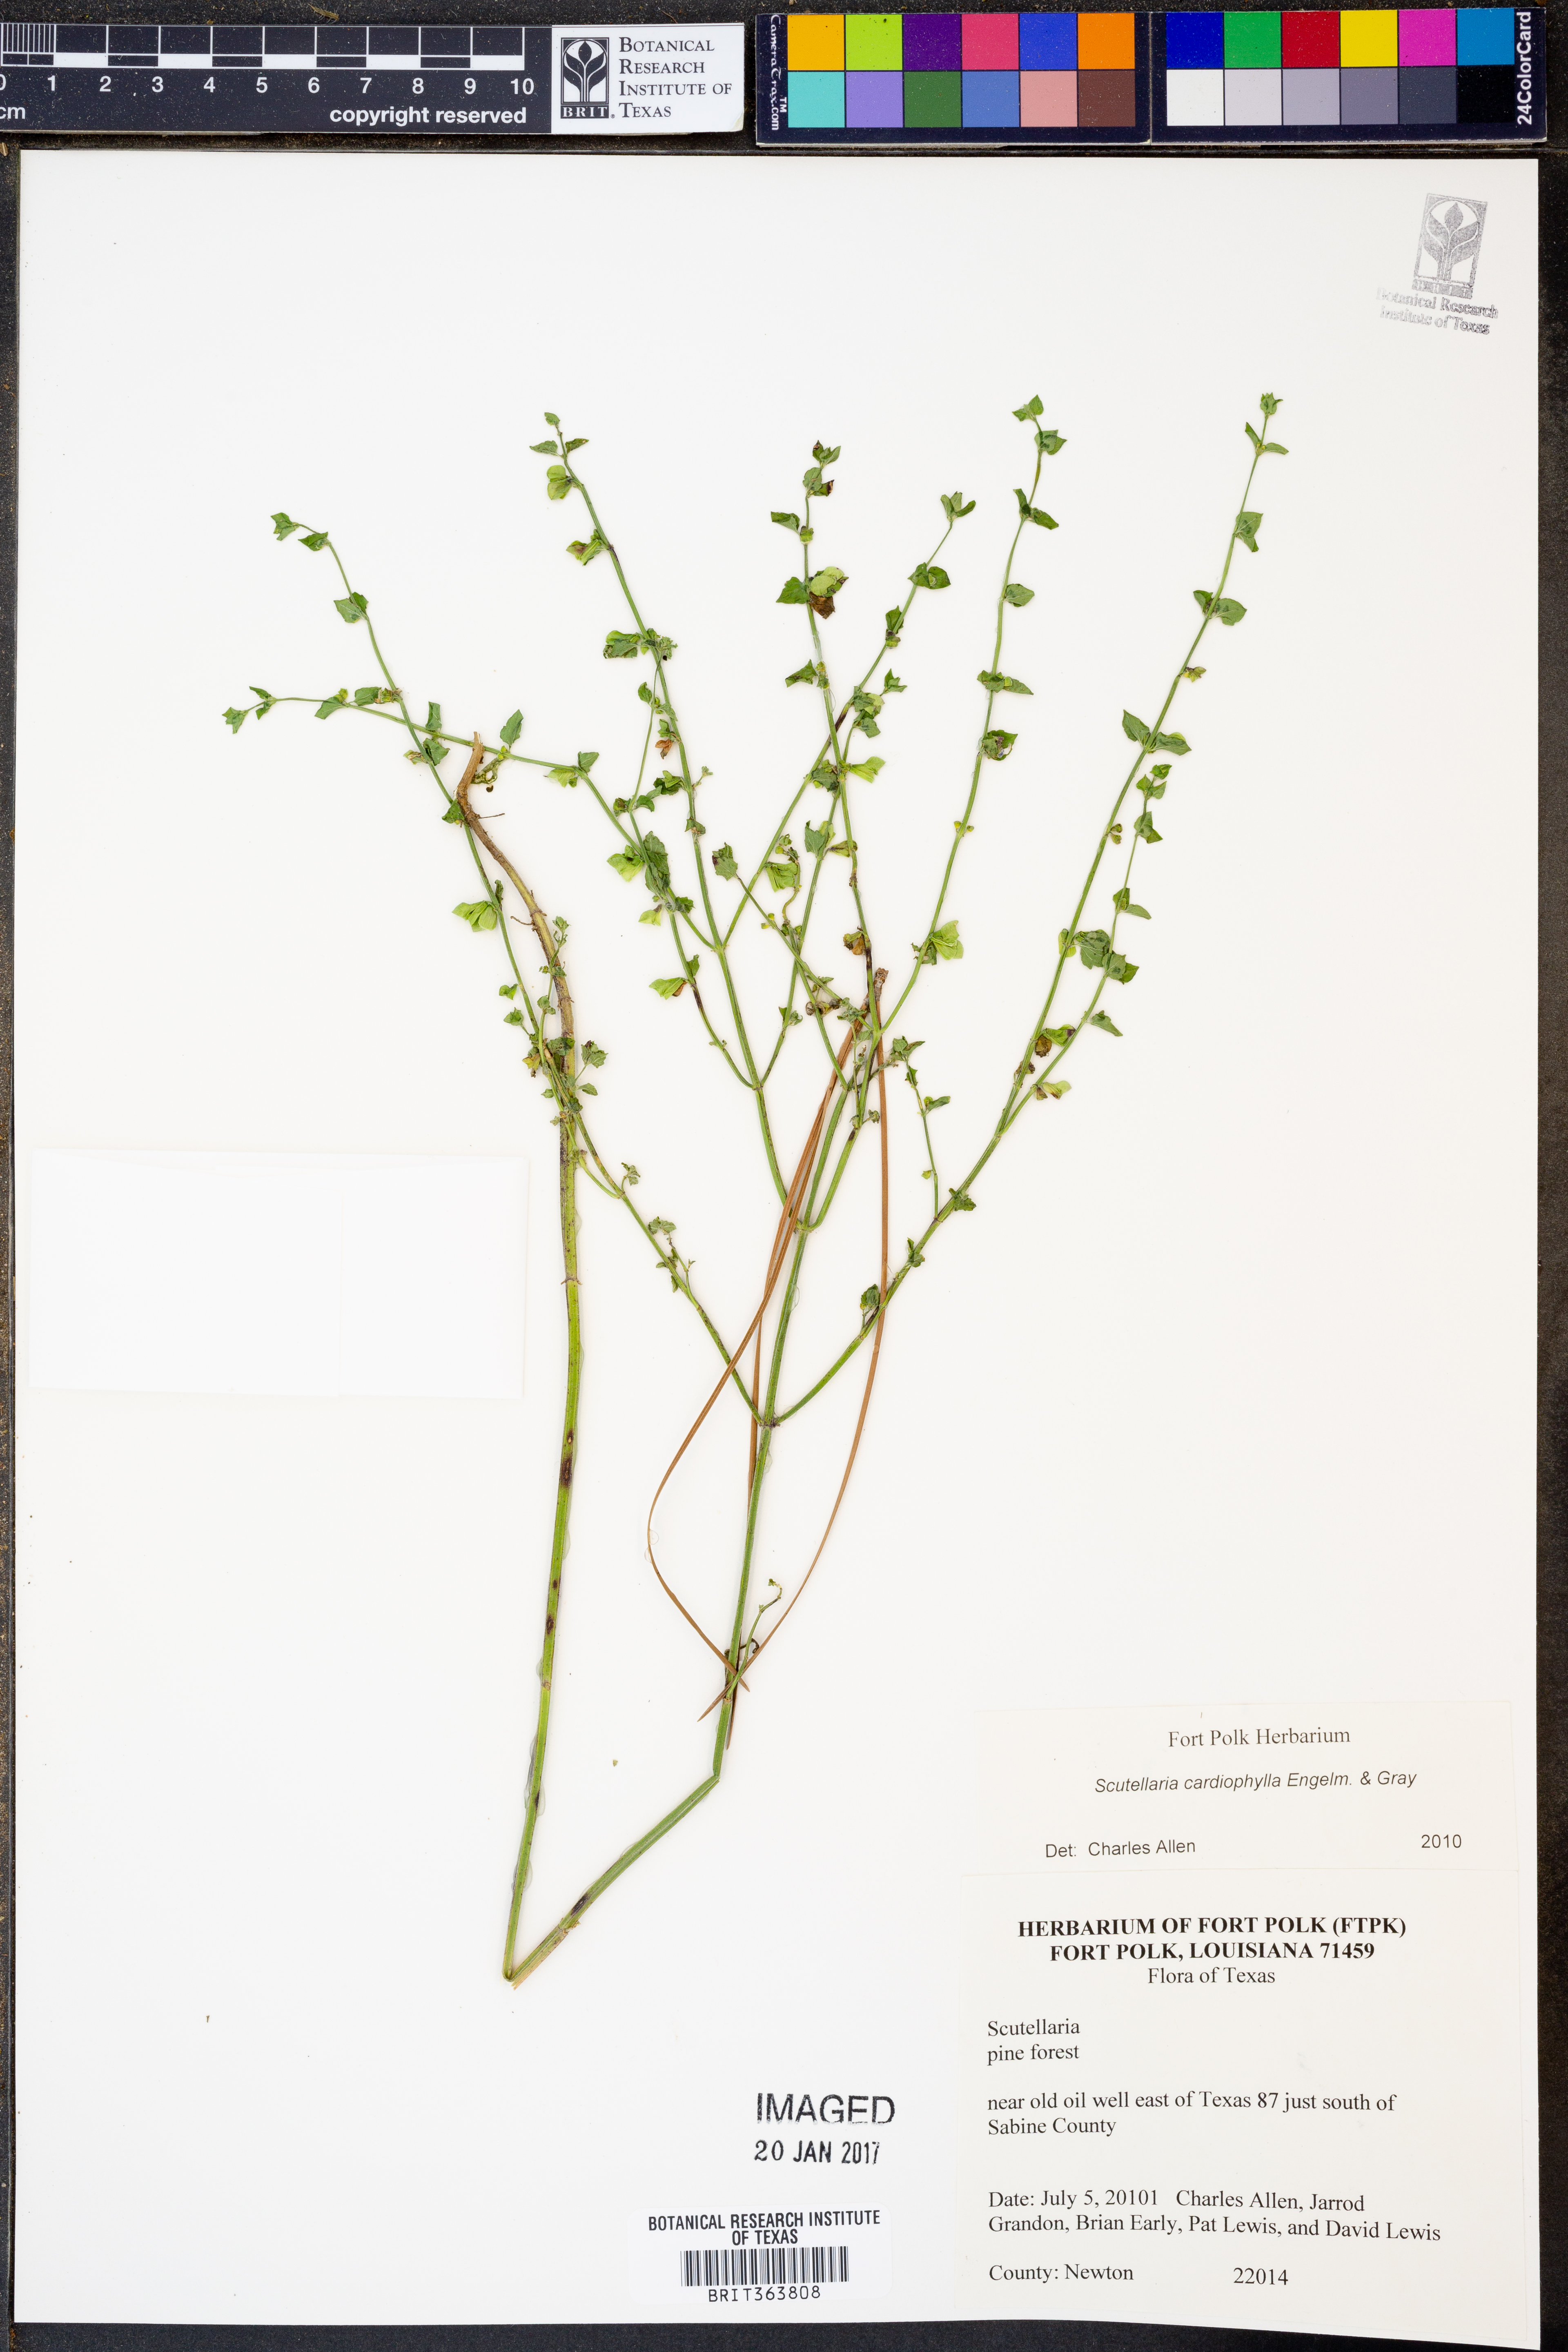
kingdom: Plantae
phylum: Tracheophyta
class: Magnoliopsida
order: Lamiales
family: Lamiaceae
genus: Scutellaria
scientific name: Scutellaria cardiophylla
